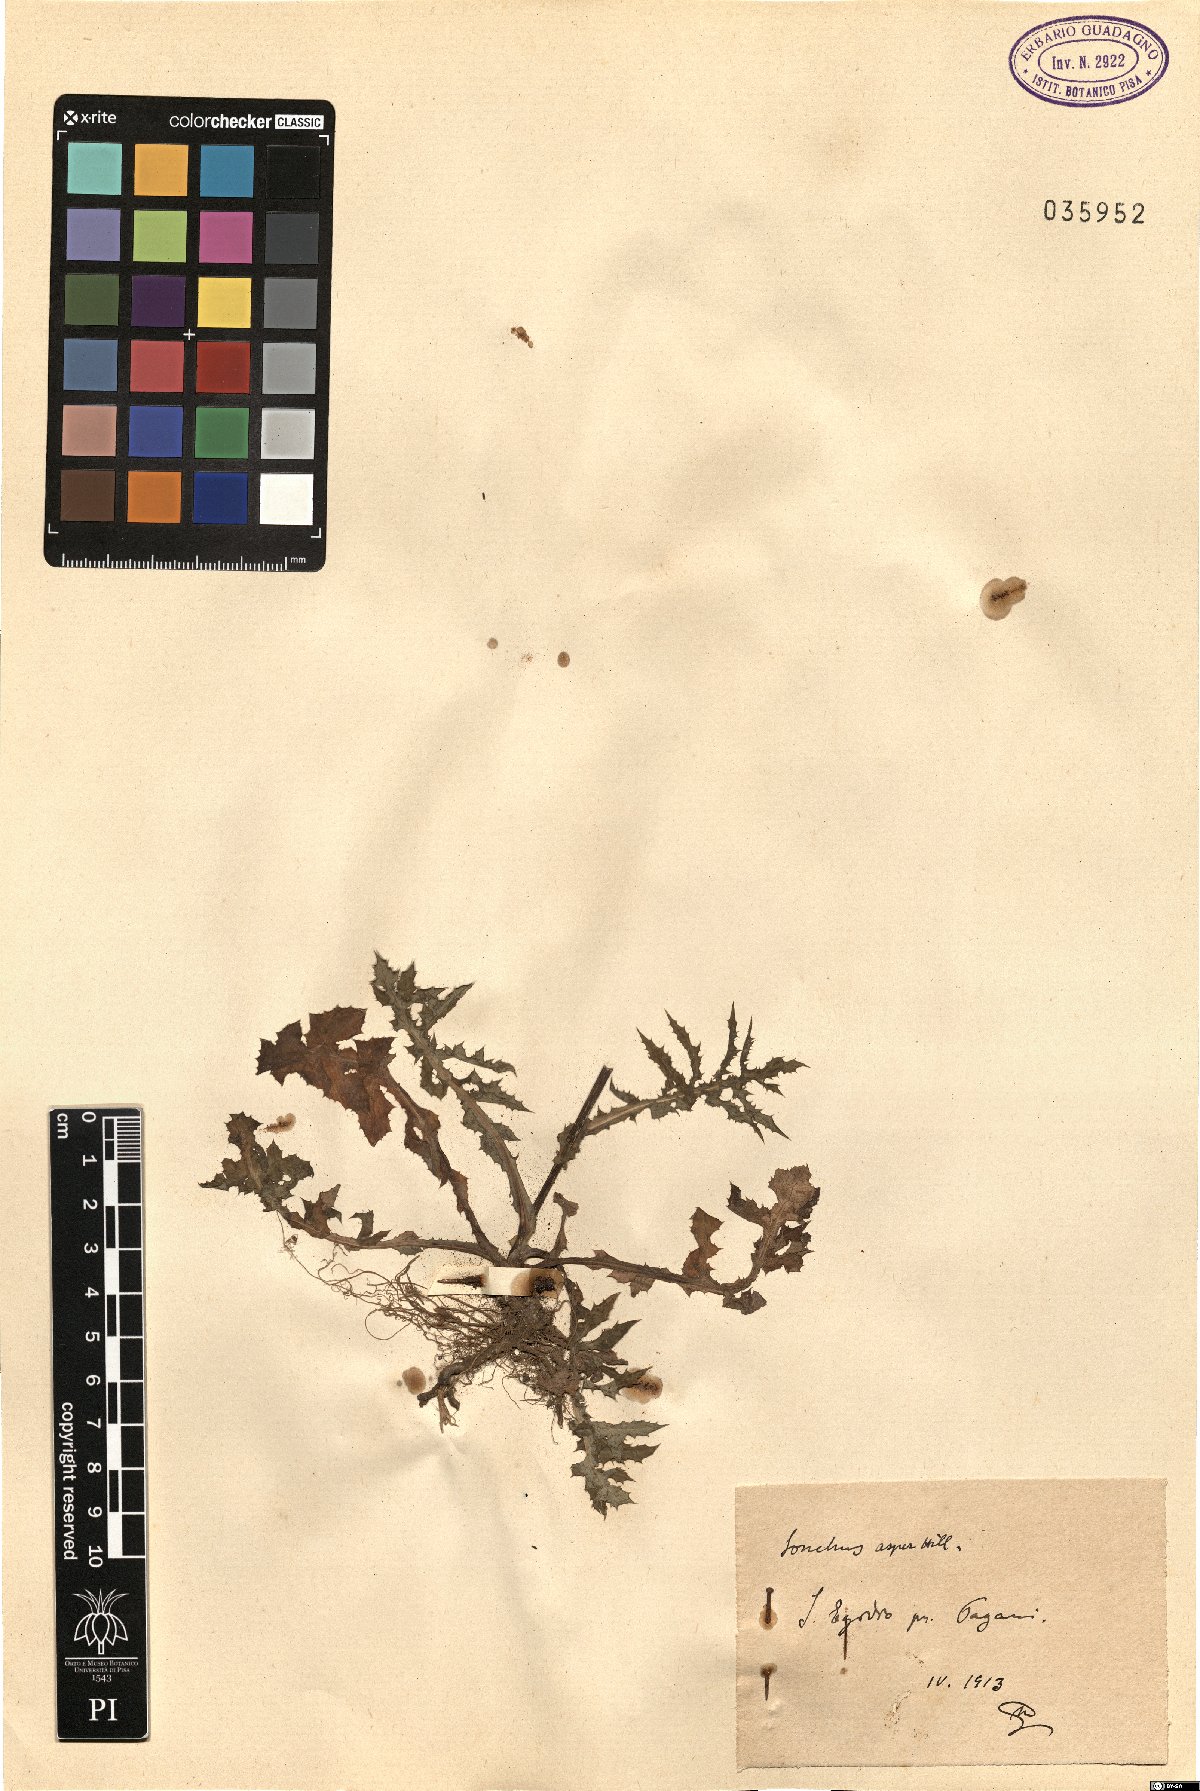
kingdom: Plantae
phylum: Tracheophyta
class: Magnoliopsida
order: Asterales
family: Asteraceae
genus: Sonchus
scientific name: Sonchus asper
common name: Prickly sow-thistle
